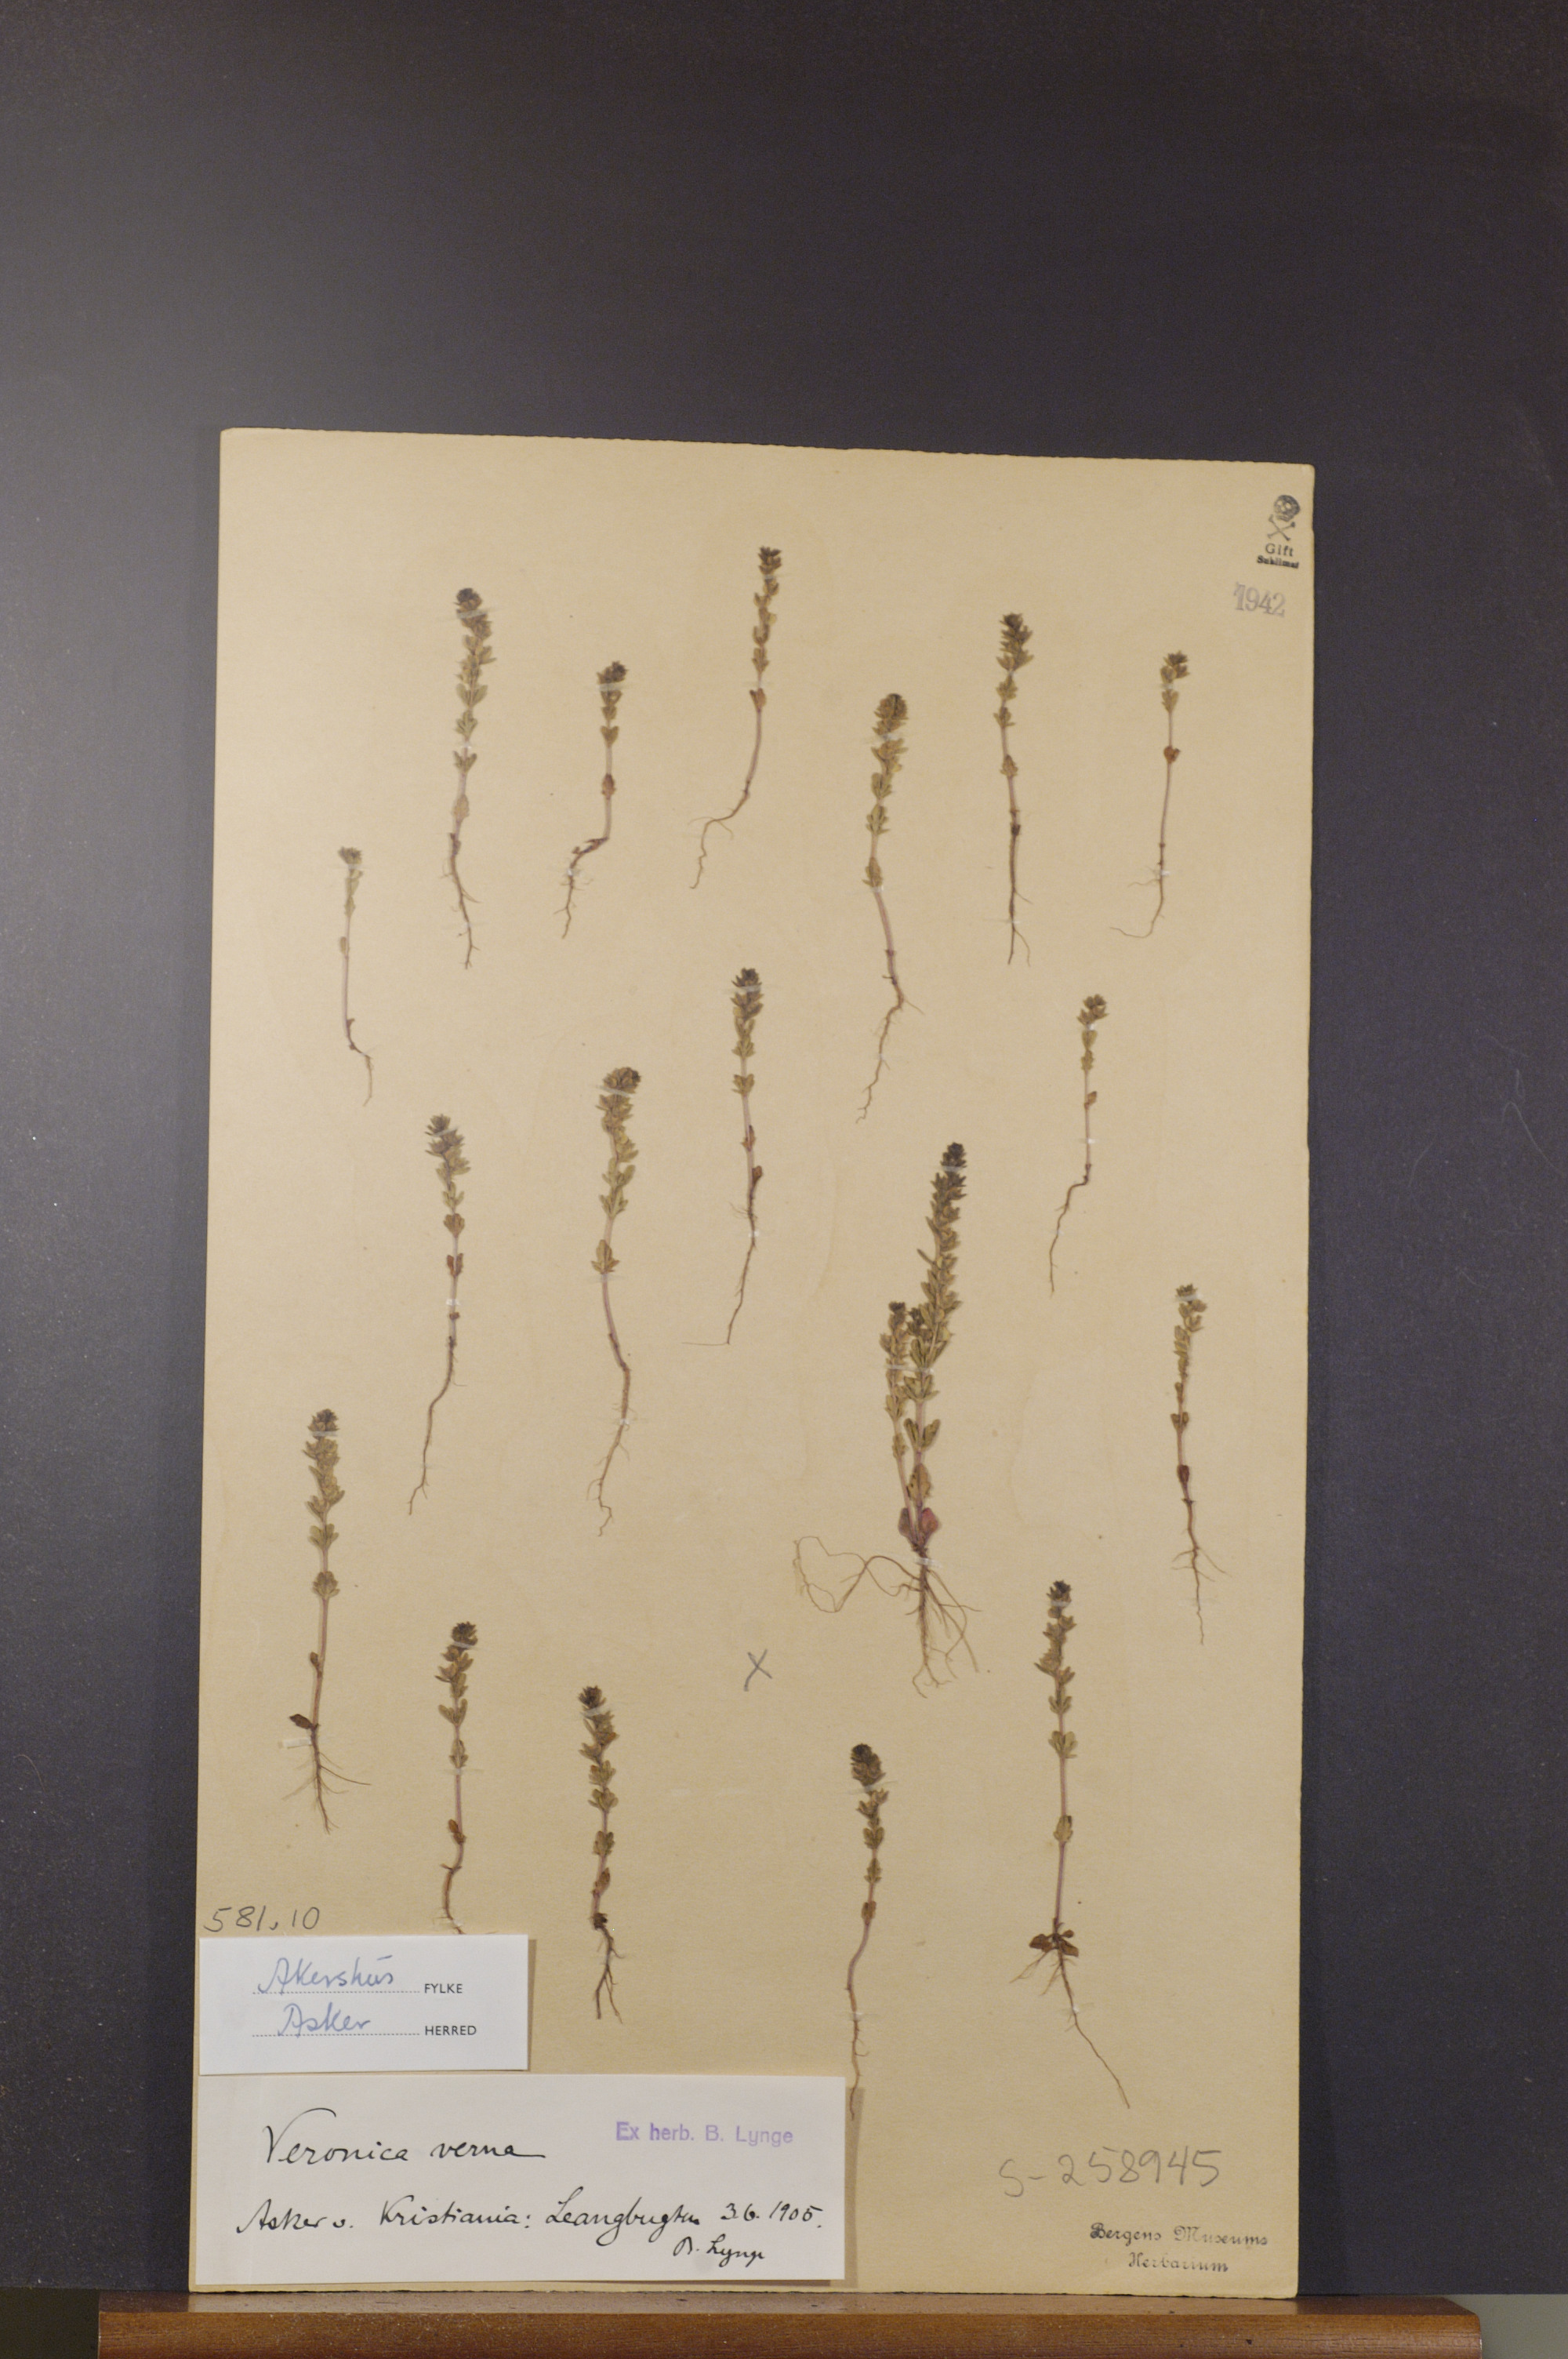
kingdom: Plantae
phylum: Tracheophyta
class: Magnoliopsida
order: Lamiales
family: Plantaginaceae
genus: Veronica
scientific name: Veronica verna
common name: Spring speedwell
